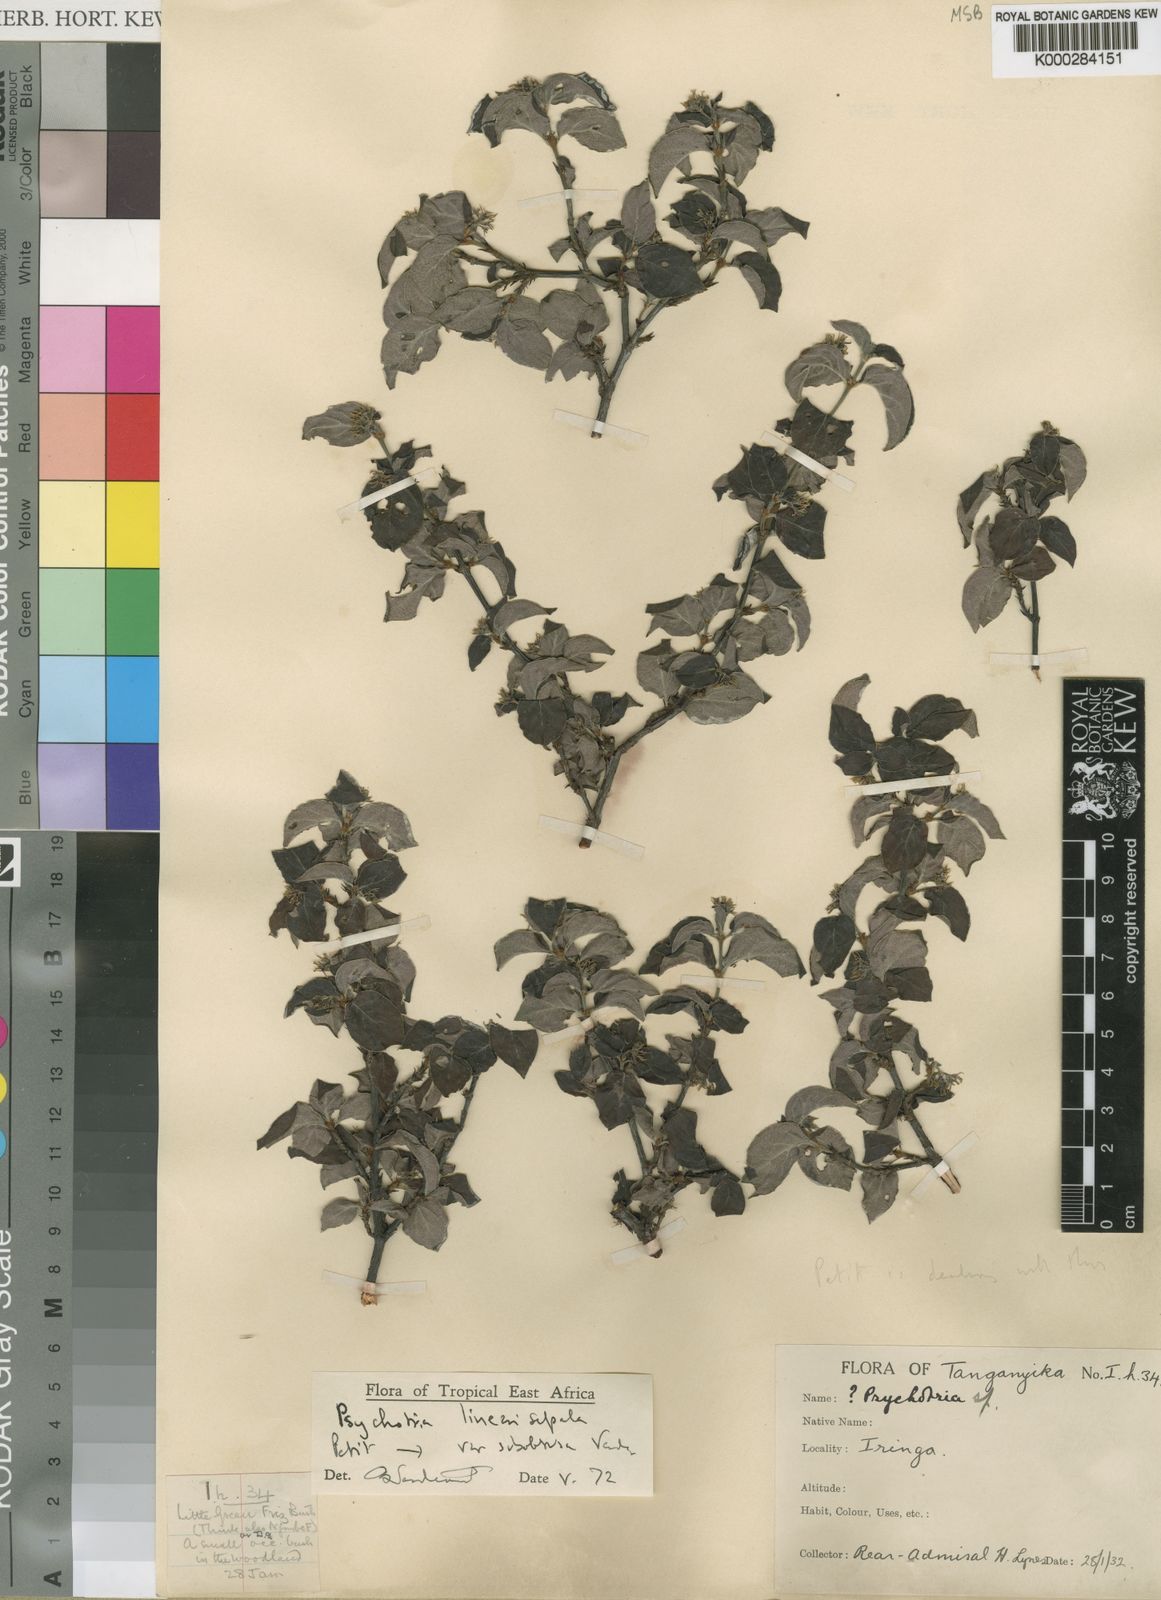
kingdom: Plantae
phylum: Tracheophyta
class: Magnoliopsida
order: Gentianales
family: Rubiaceae
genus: Psychotria
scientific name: Psychotria linearisepala
